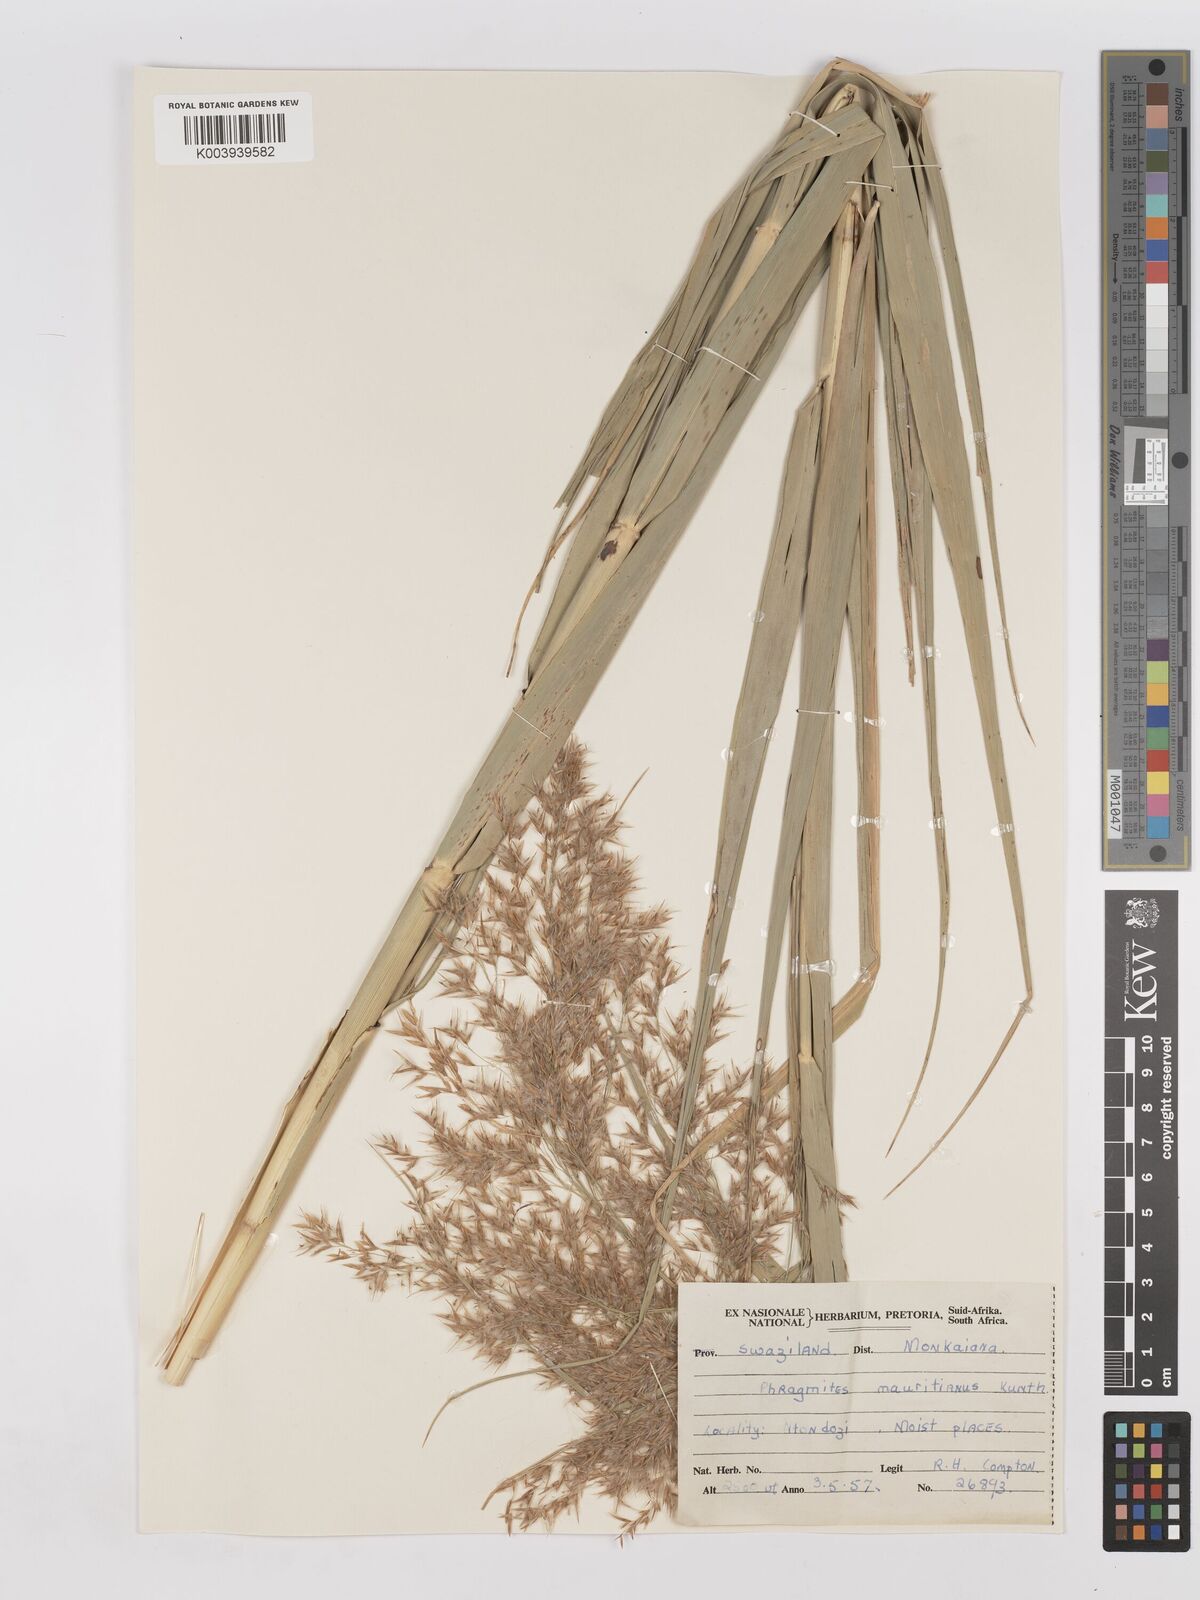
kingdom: Plantae
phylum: Tracheophyta
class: Liliopsida
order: Poales
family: Poaceae
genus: Phragmites
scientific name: Phragmites mauritianus
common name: Reed grass
